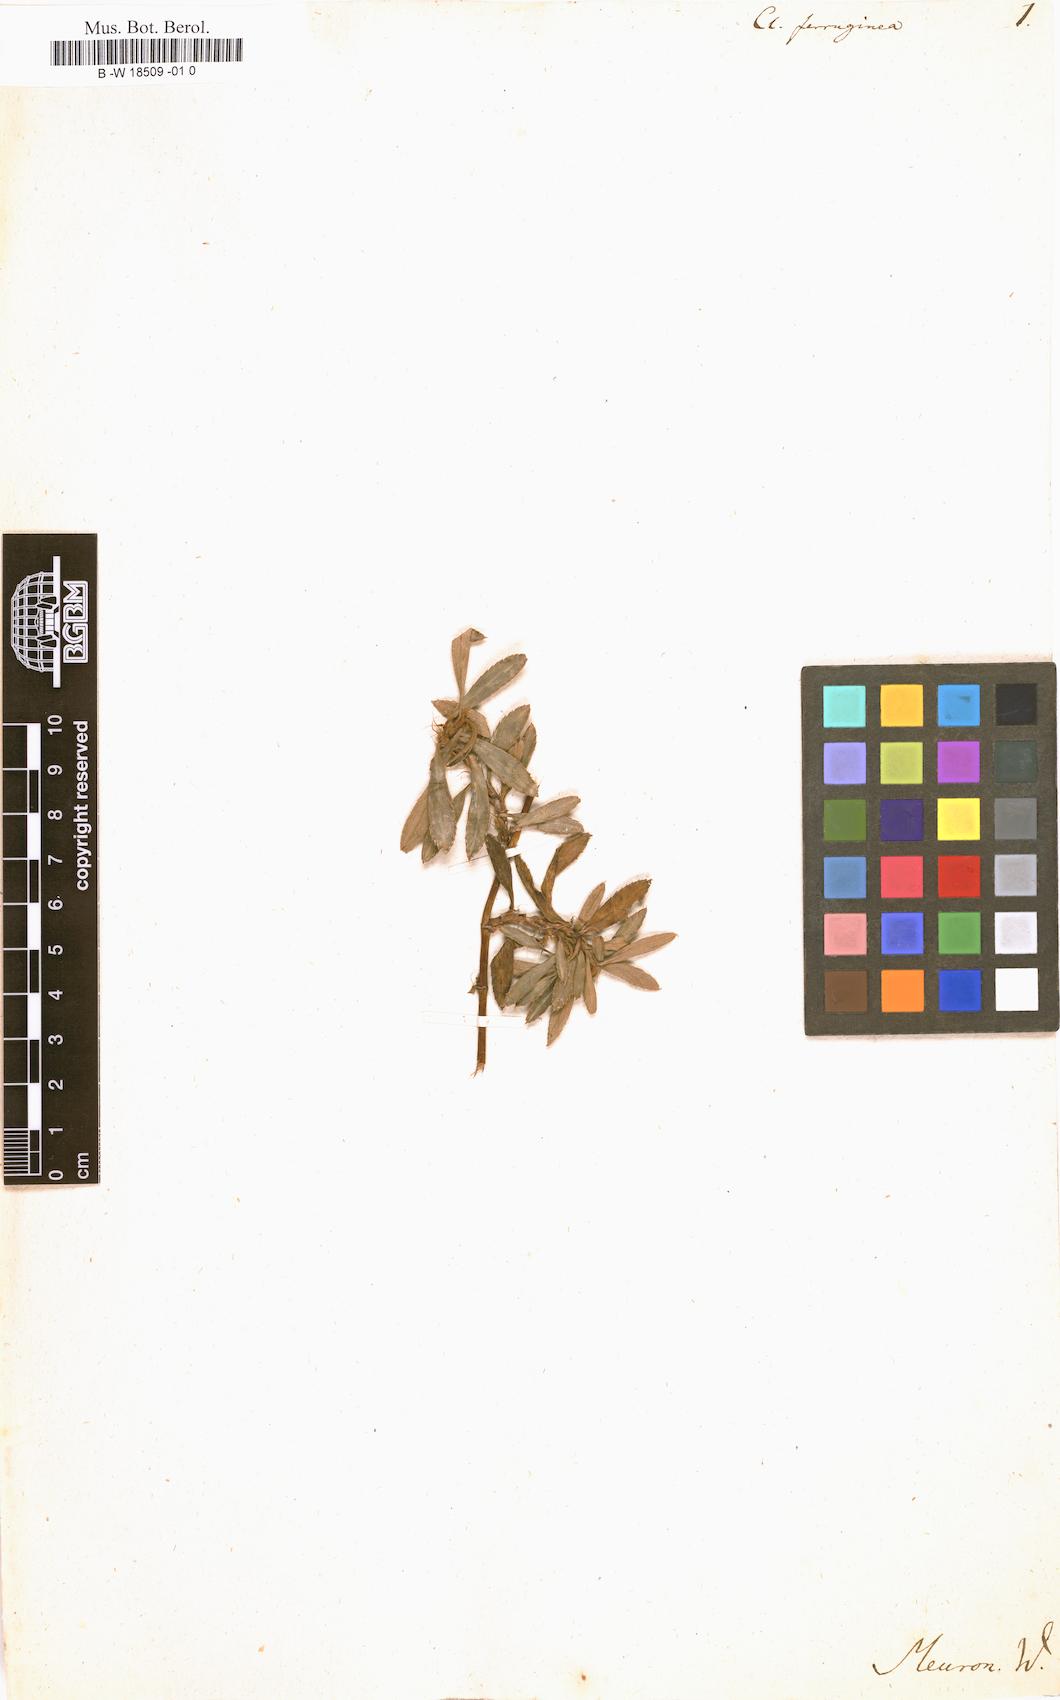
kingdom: Plantae
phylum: Tracheophyta
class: Magnoliopsida
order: Rosales
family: Rosaceae
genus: Cliffortia
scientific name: Cliffortia ferruginea
